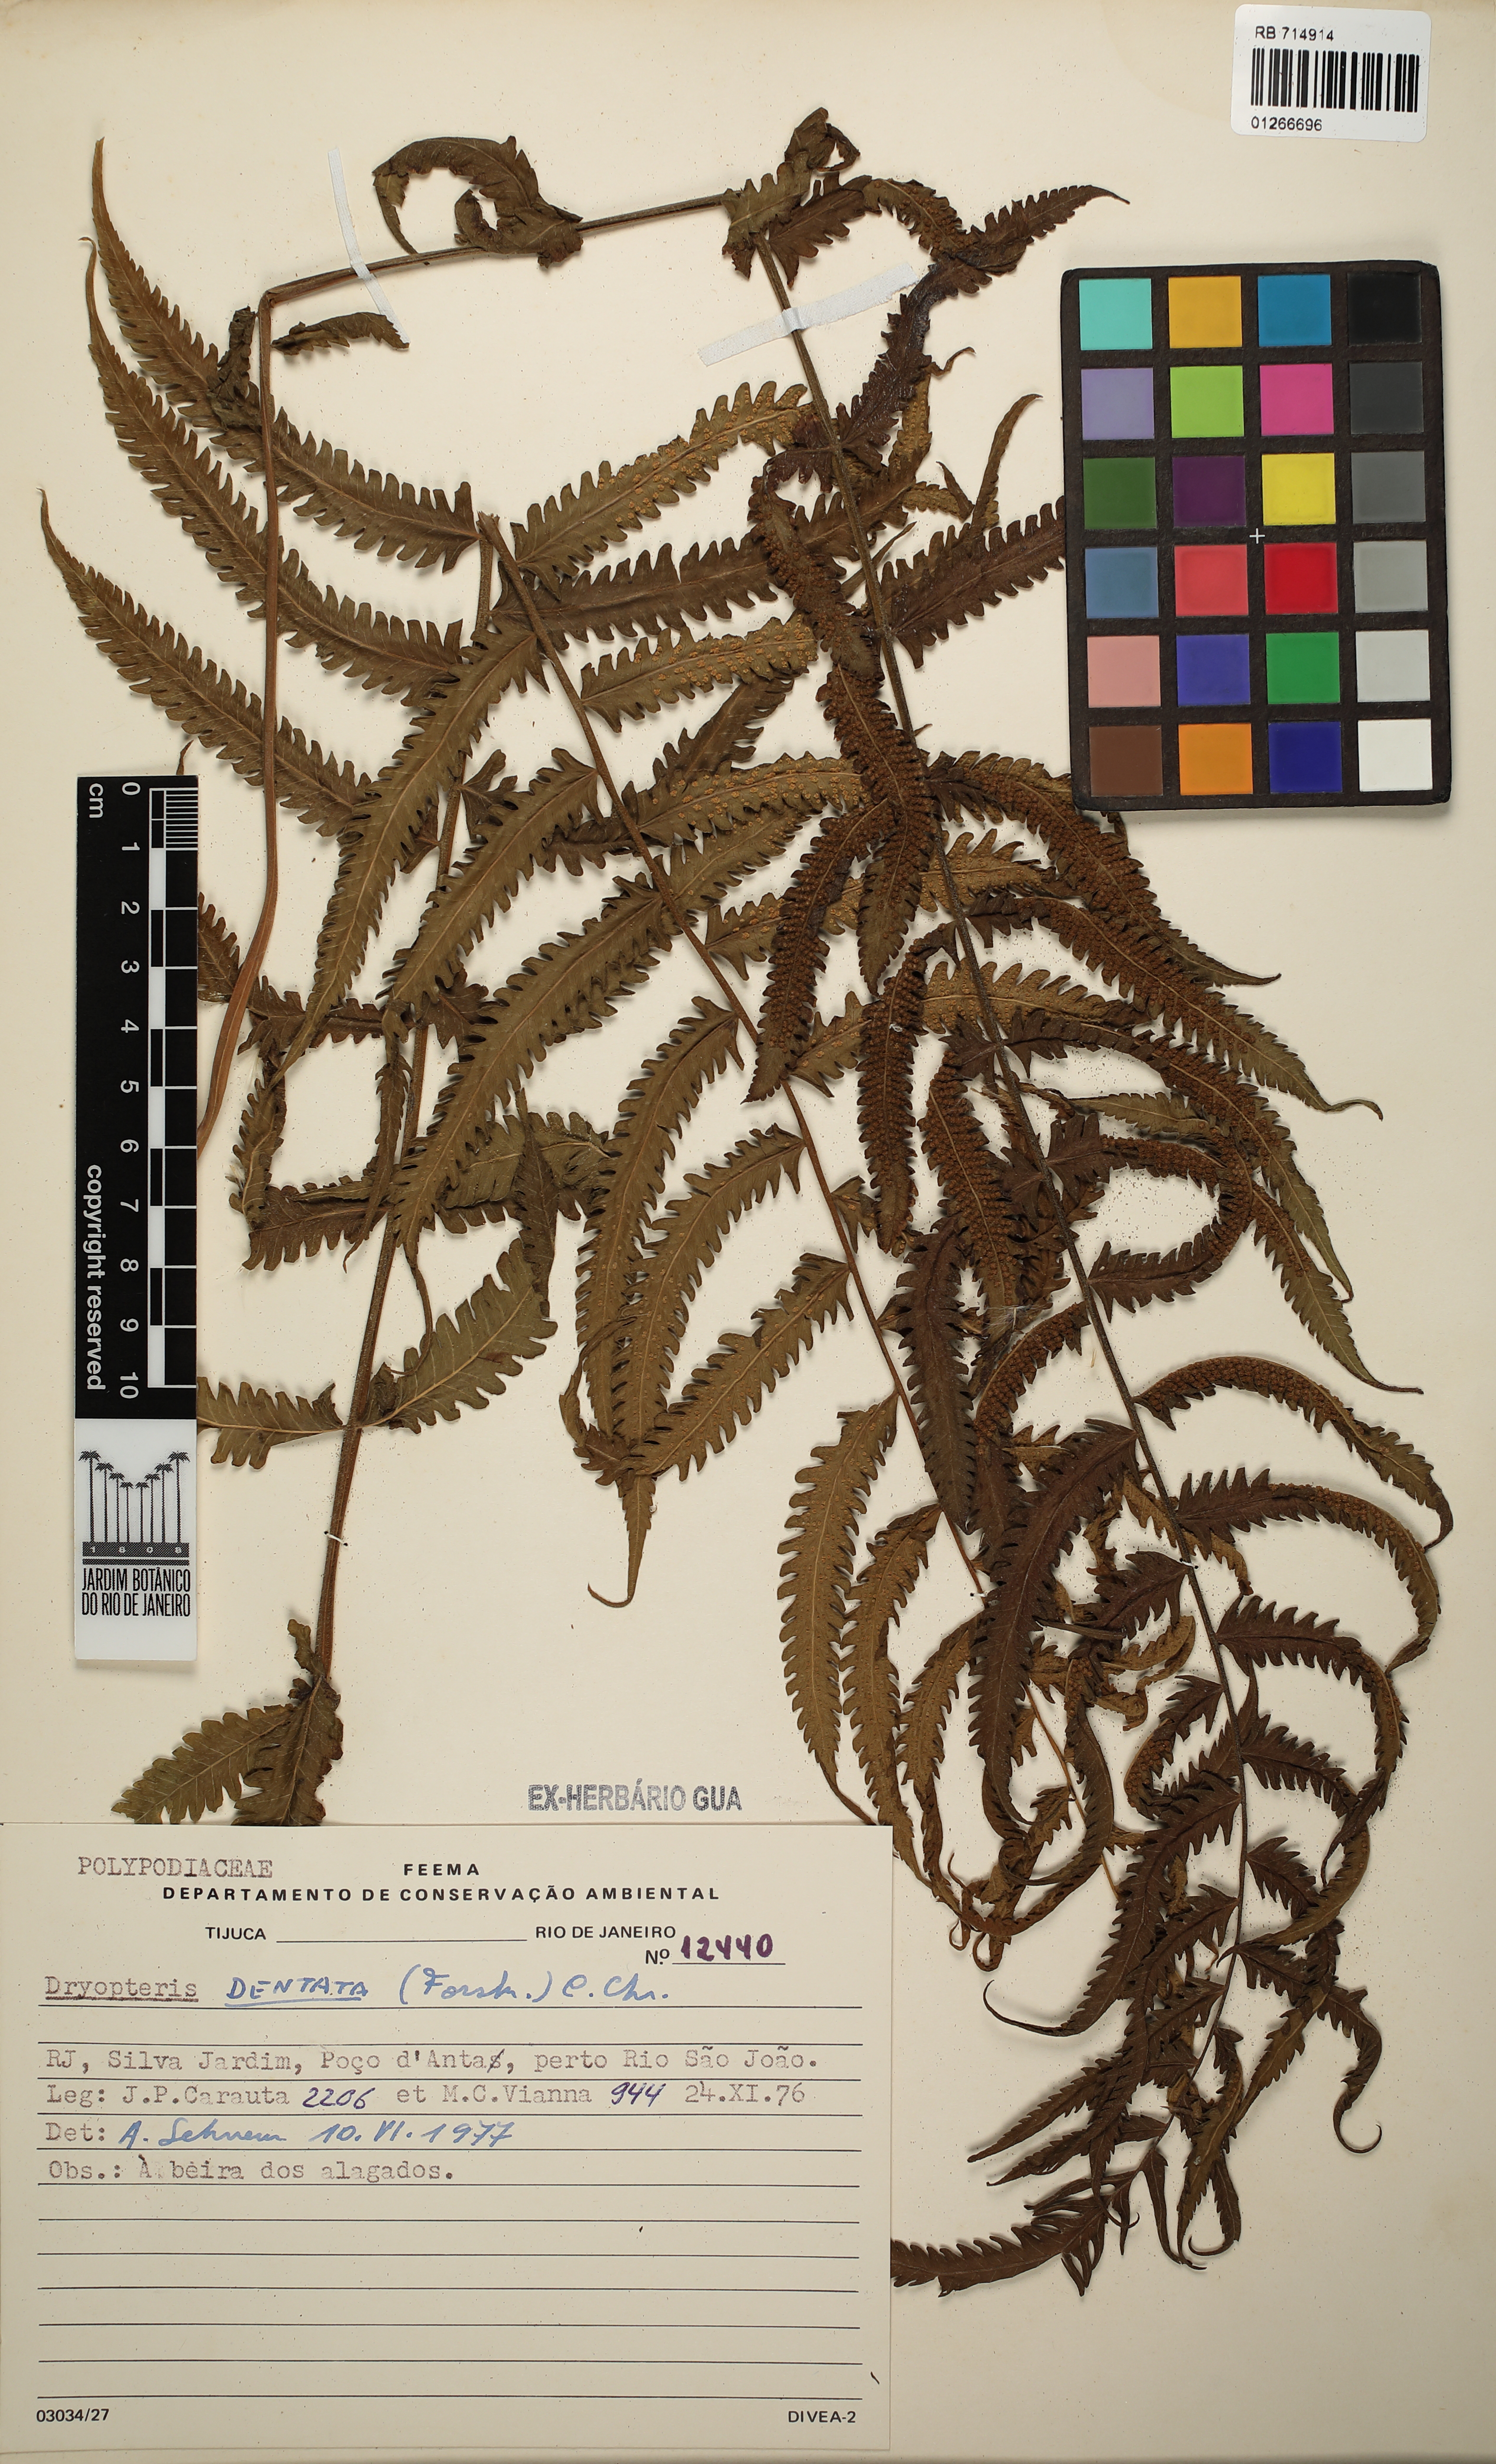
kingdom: Plantae
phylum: Tracheophyta
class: Polypodiopsida
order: Polypodiales
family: Thelypteridaceae
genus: Christella
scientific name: Christella dentata
